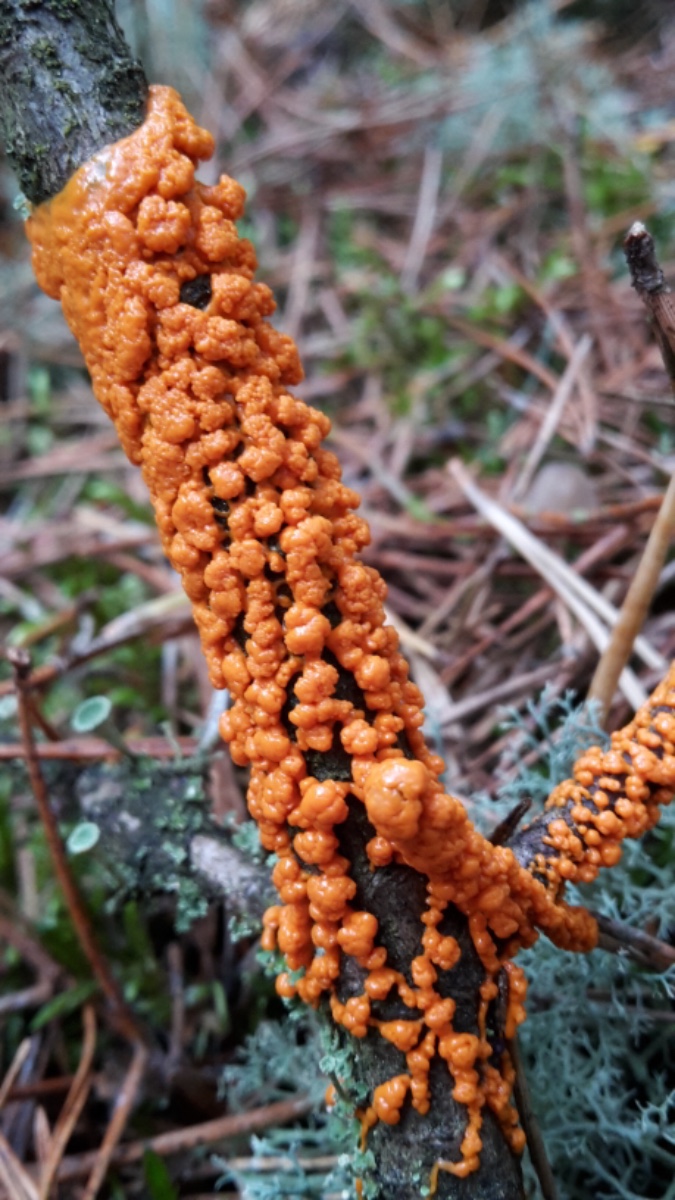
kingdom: Protozoa
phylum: Mycetozoa
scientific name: Mycetozoa
